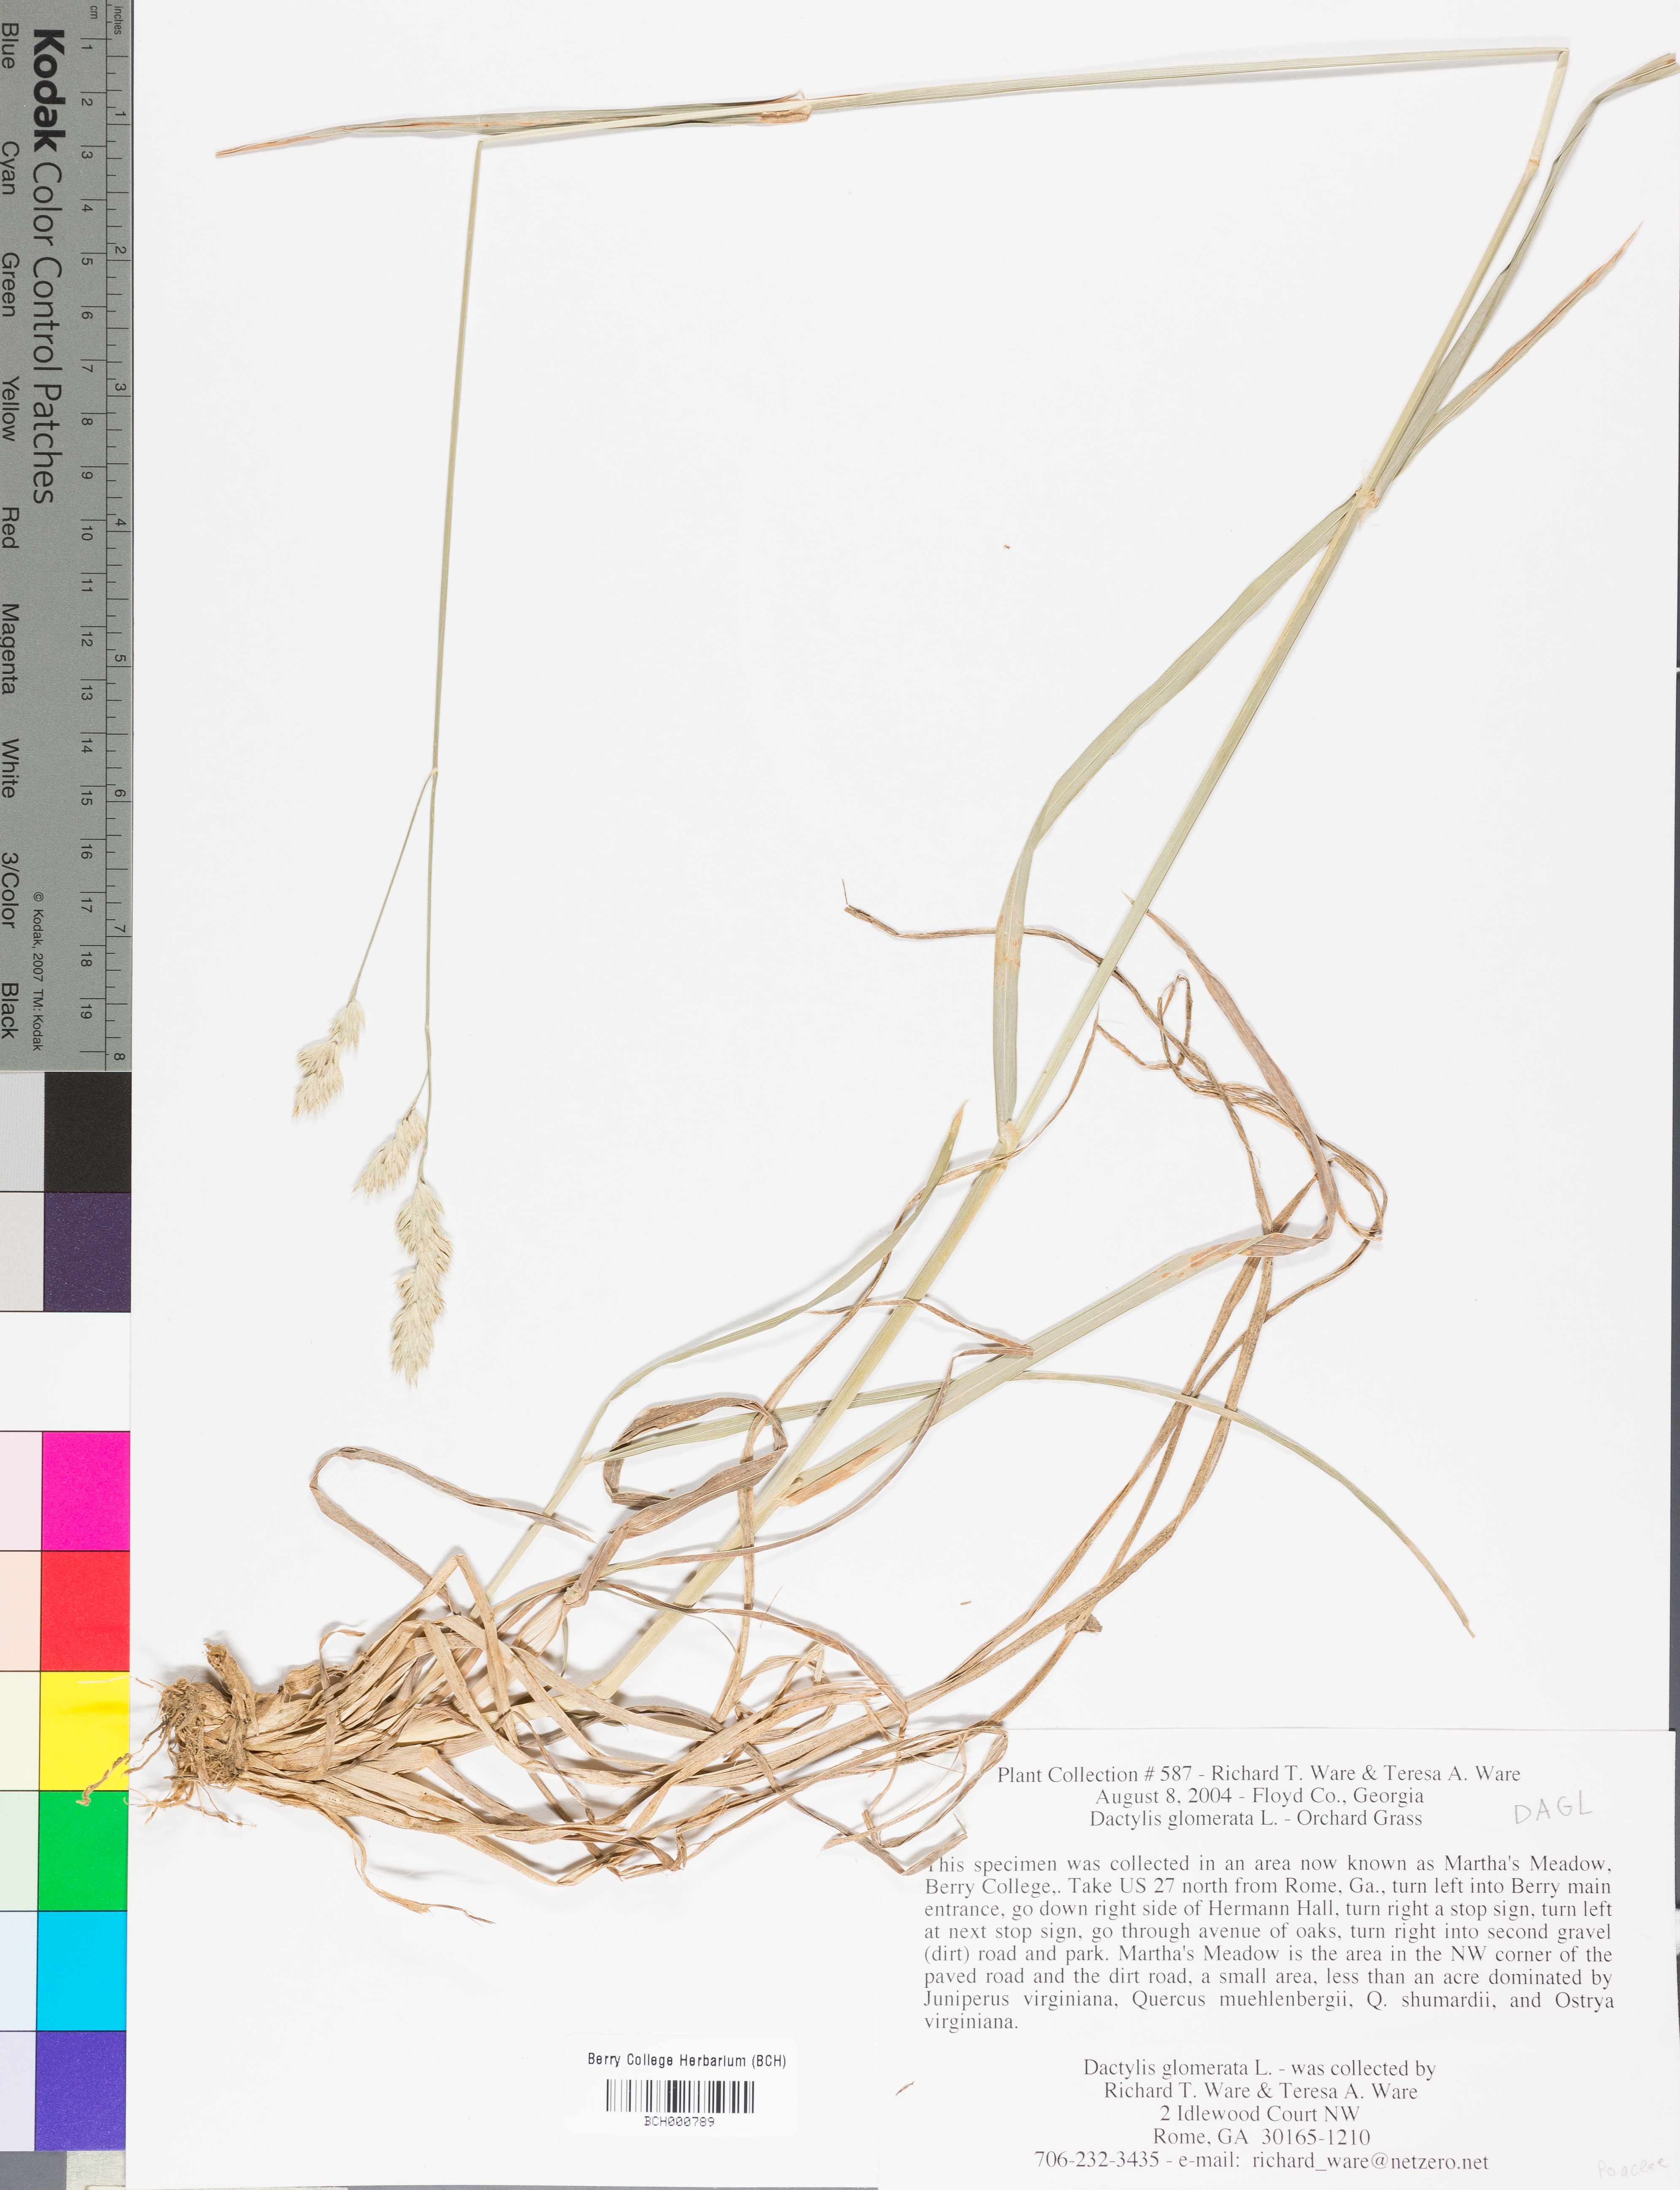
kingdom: Plantae
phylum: Tracheophyta
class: Liliopsida
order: Poales
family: Poaceae
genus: Dactylis
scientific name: Dactylis glomerata
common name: Orchardgrass
